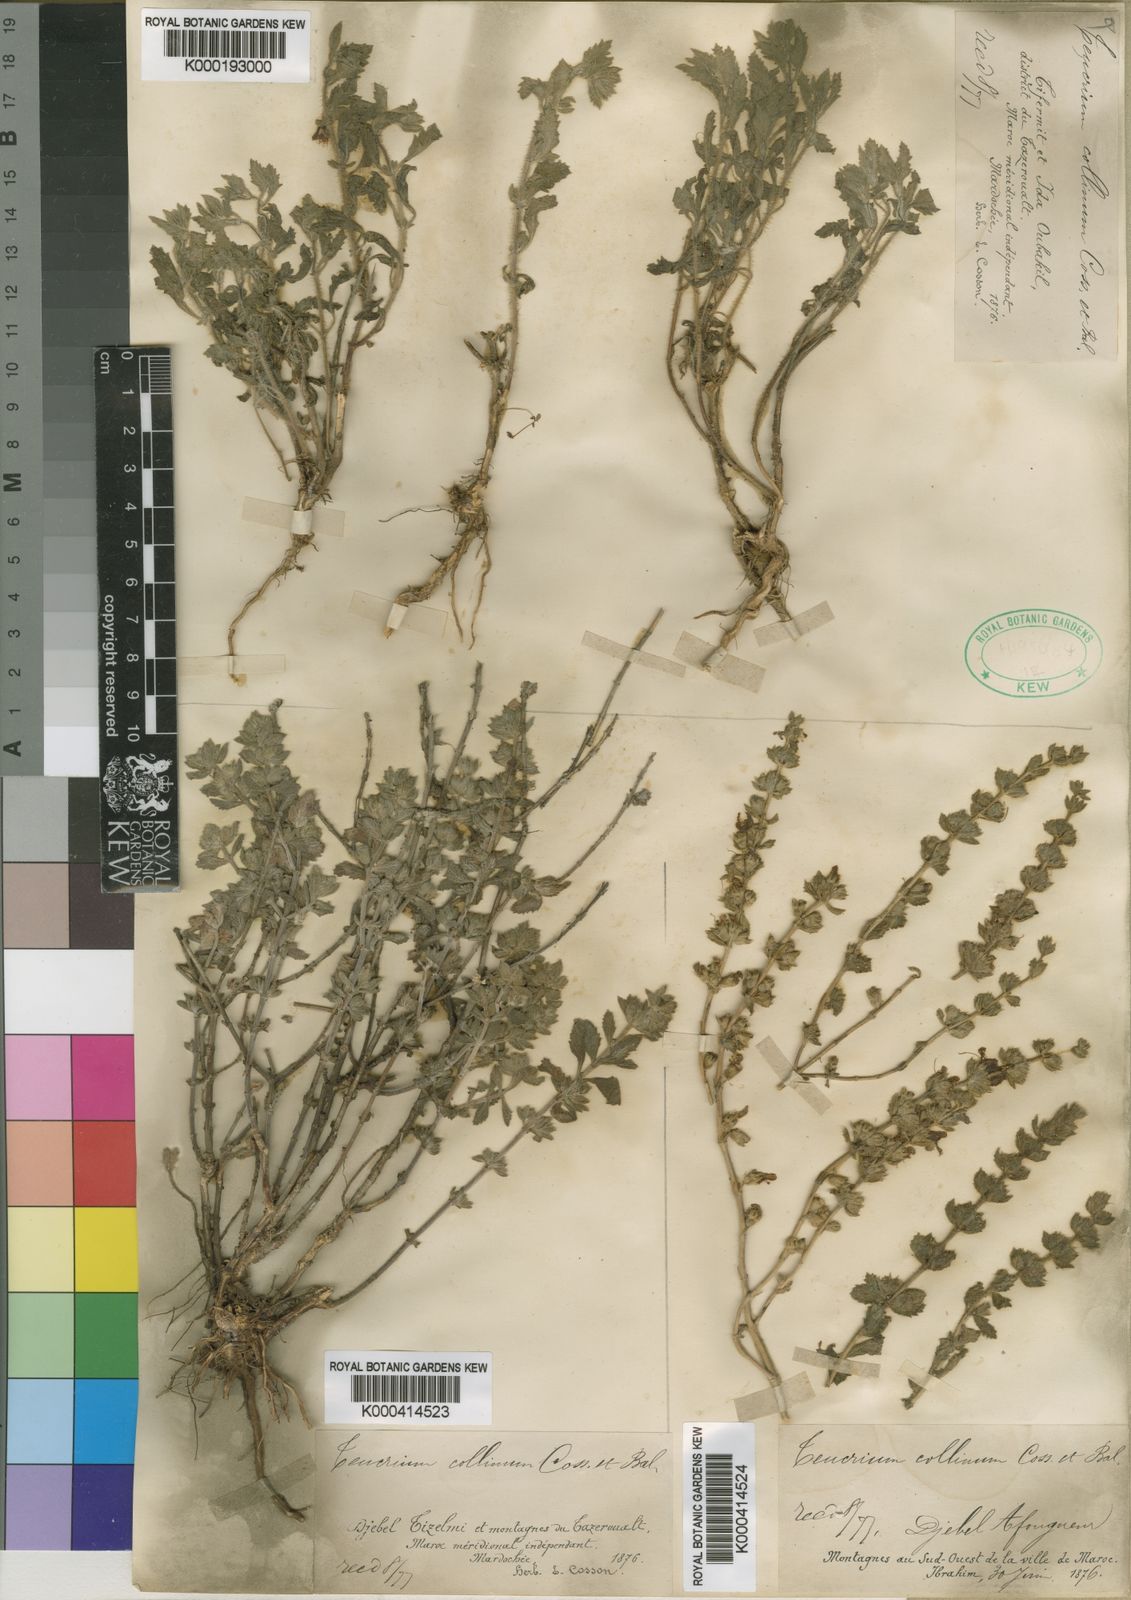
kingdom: Plantae
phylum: Tracheophyta
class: Magnoliopsida
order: Lamiales
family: Lamiaceae
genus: Teucrium
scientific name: Teucrium demnatense
